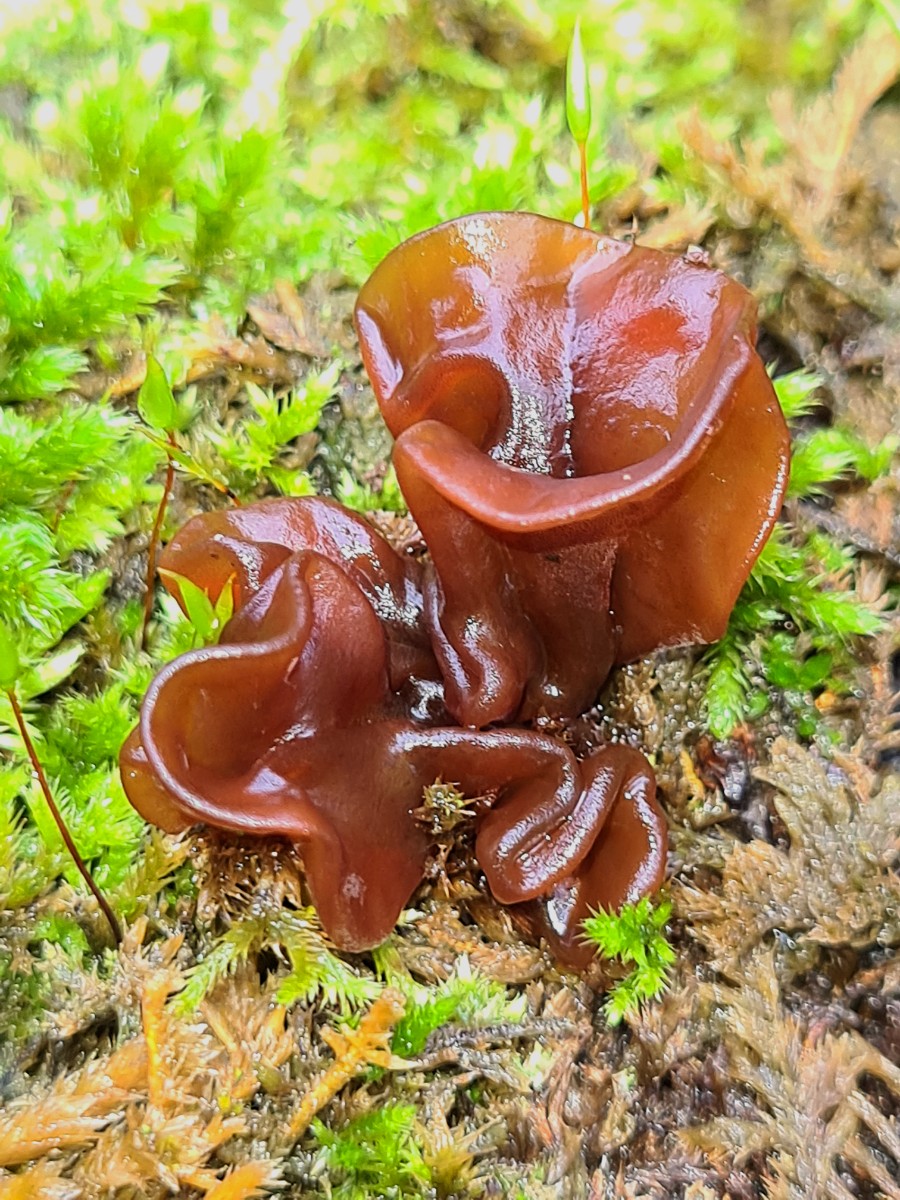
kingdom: Fungi
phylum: Basidiomycota
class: Tremellomycetes
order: Tremellales
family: Tremellaceae
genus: Phaeotremella
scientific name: Phaeotremella frondosa
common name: kæmpe-bævresvamp
